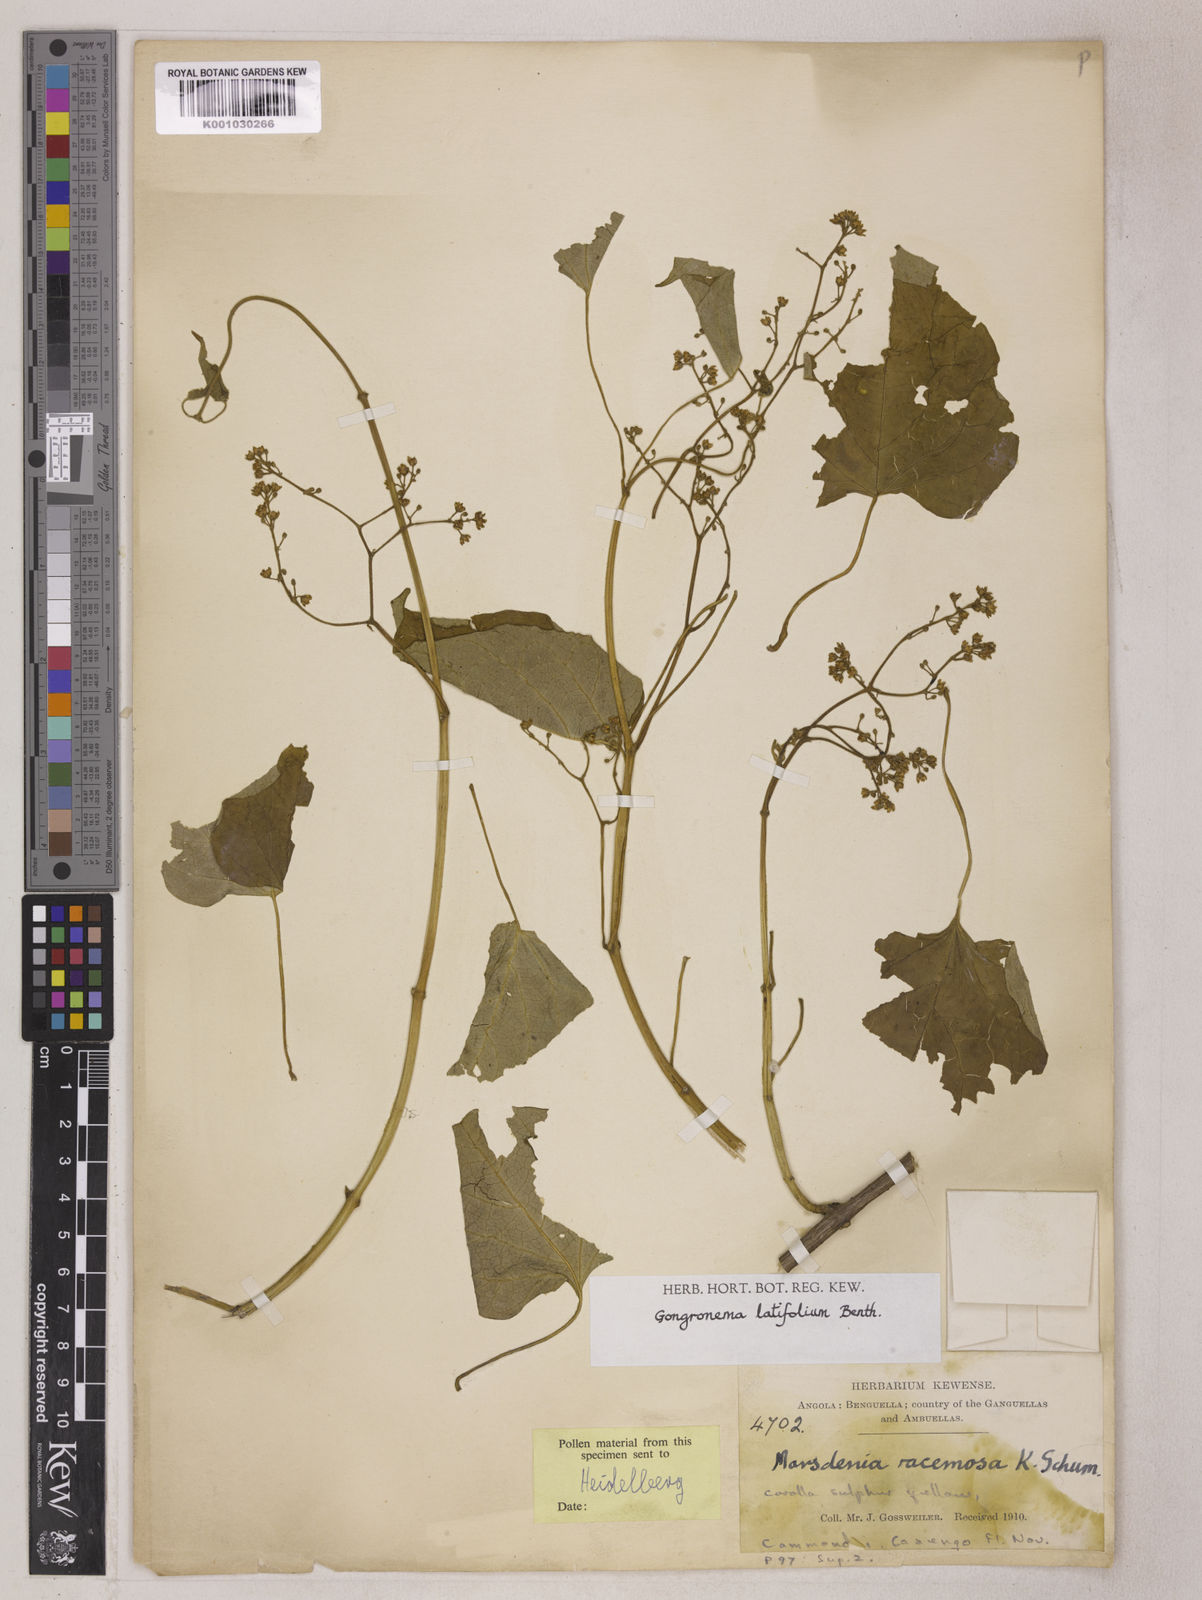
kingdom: Plantae
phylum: Tracheophyta
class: Magnoliopsida
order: Gentianales
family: Apocynaceae
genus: Gongronemopsis
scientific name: Gongronemopsis latifolia
